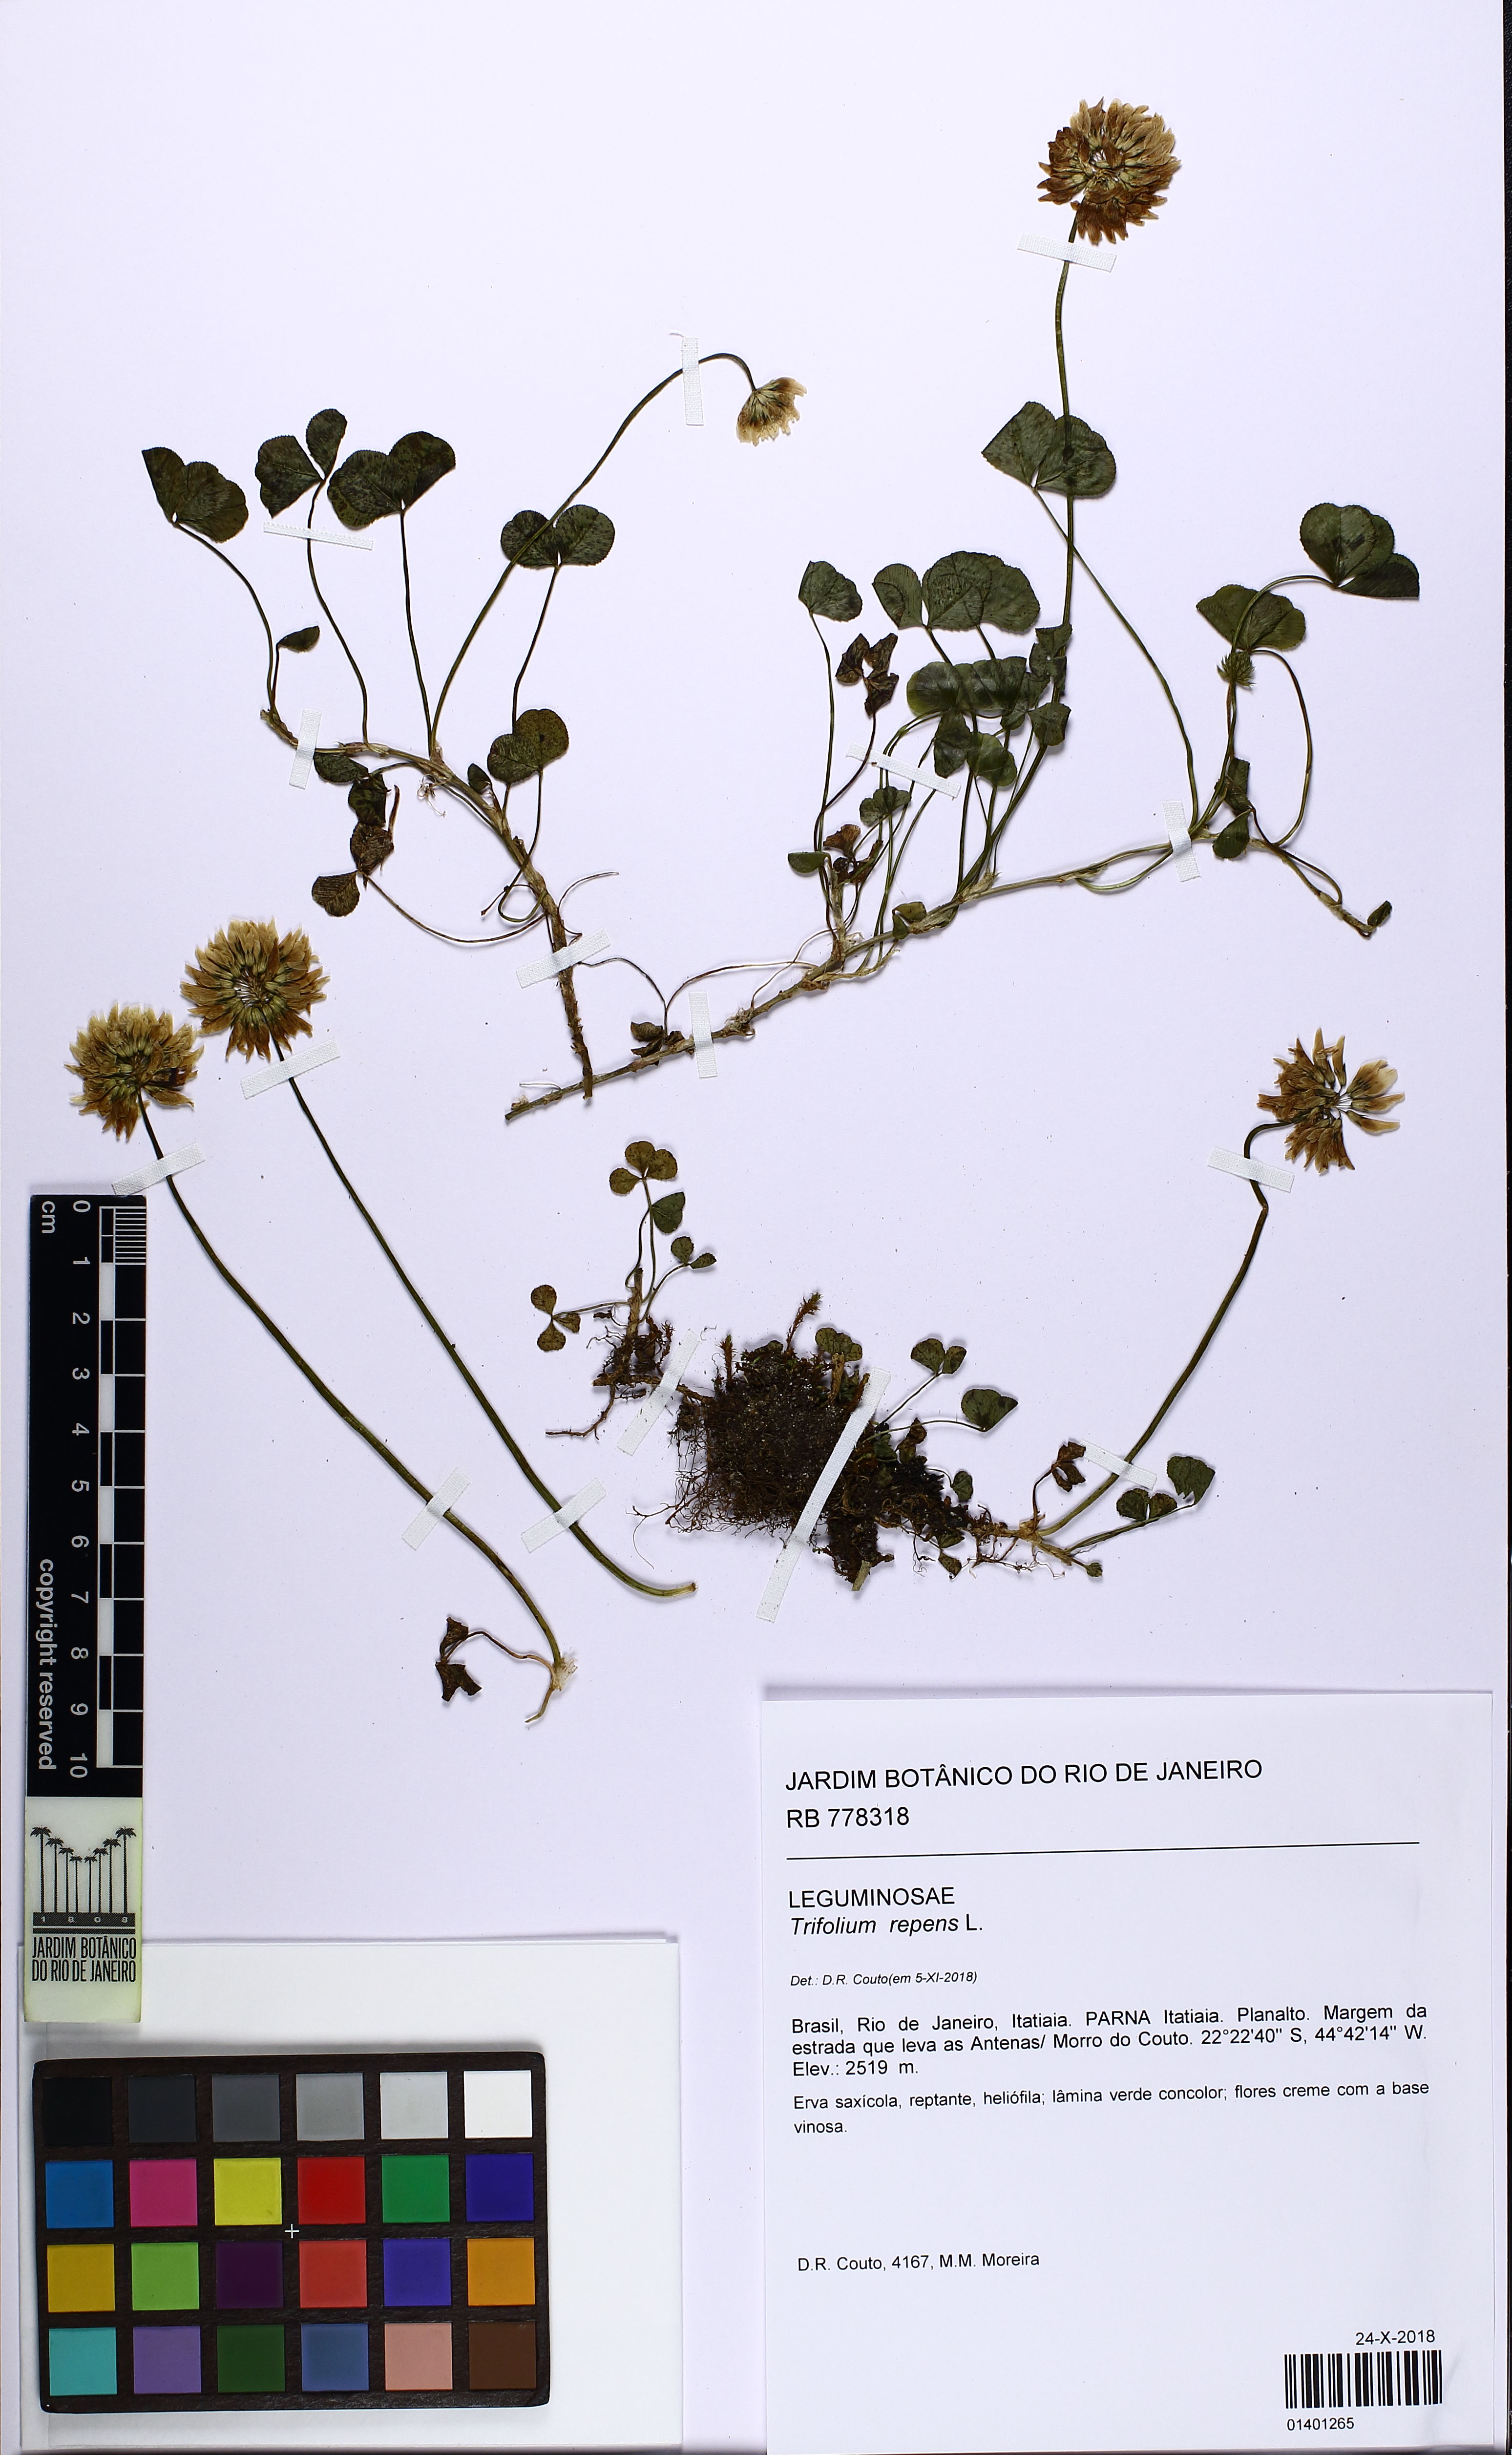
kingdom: Plantae
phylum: Tracheophyta
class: Magnoliopsida
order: Fabales
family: Fabaceae
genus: Trifolium
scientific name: Trifolium repens
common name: White clover
